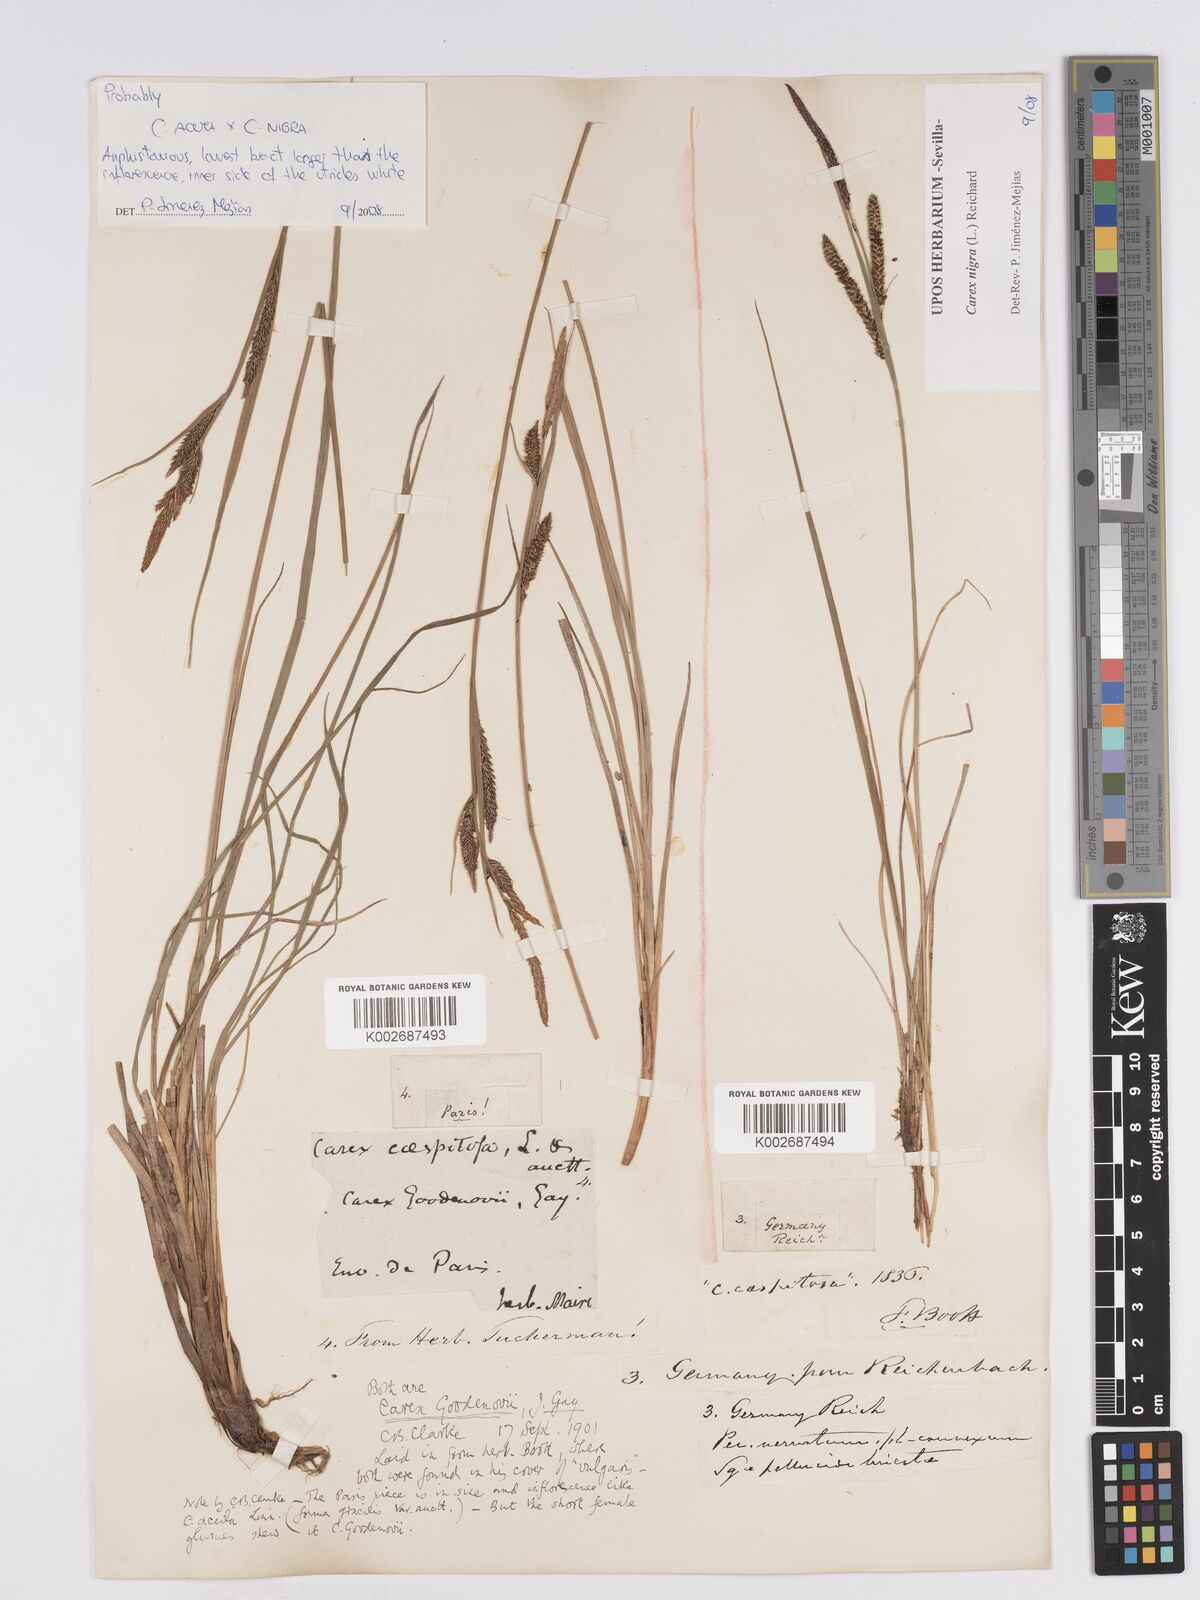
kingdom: Plantae
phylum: Tracheophyta
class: Liliopsida
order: Poales
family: Cyperaceae
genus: Carex
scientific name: Carex nigra
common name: Common sedge
